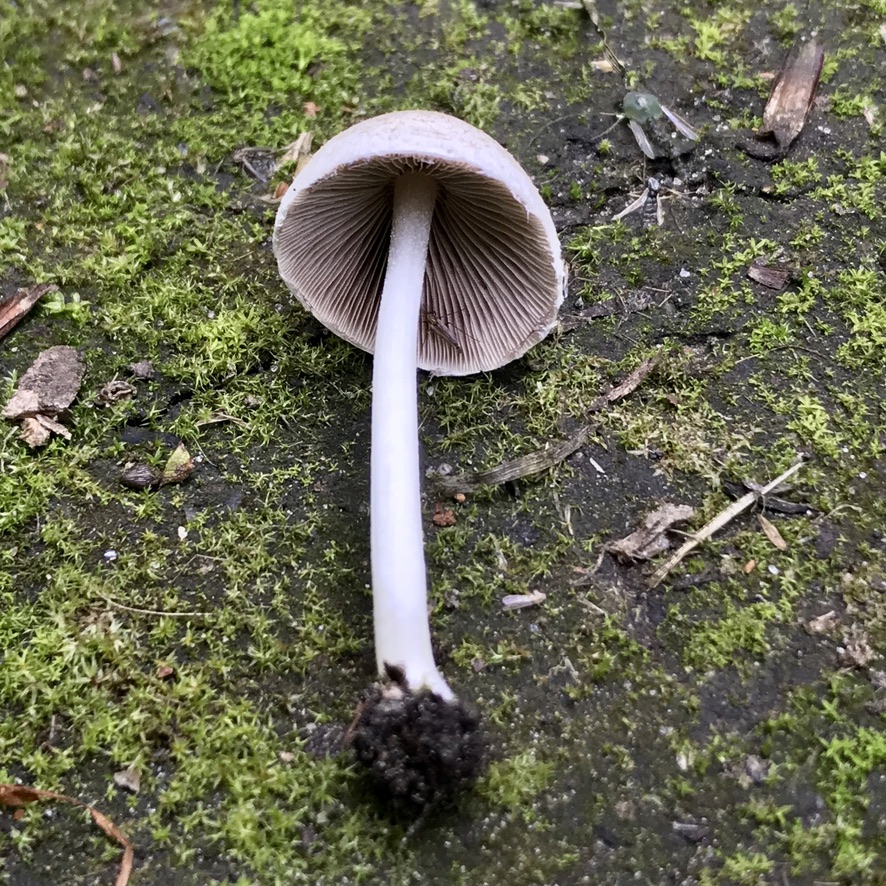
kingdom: Fungi
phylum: Basidiomycota
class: Agaricomycetes
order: Agaricales
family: Psathyrellaceae
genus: Candolleomyces
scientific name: Candolleomyces candolleanus
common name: Candolles mørkhat
